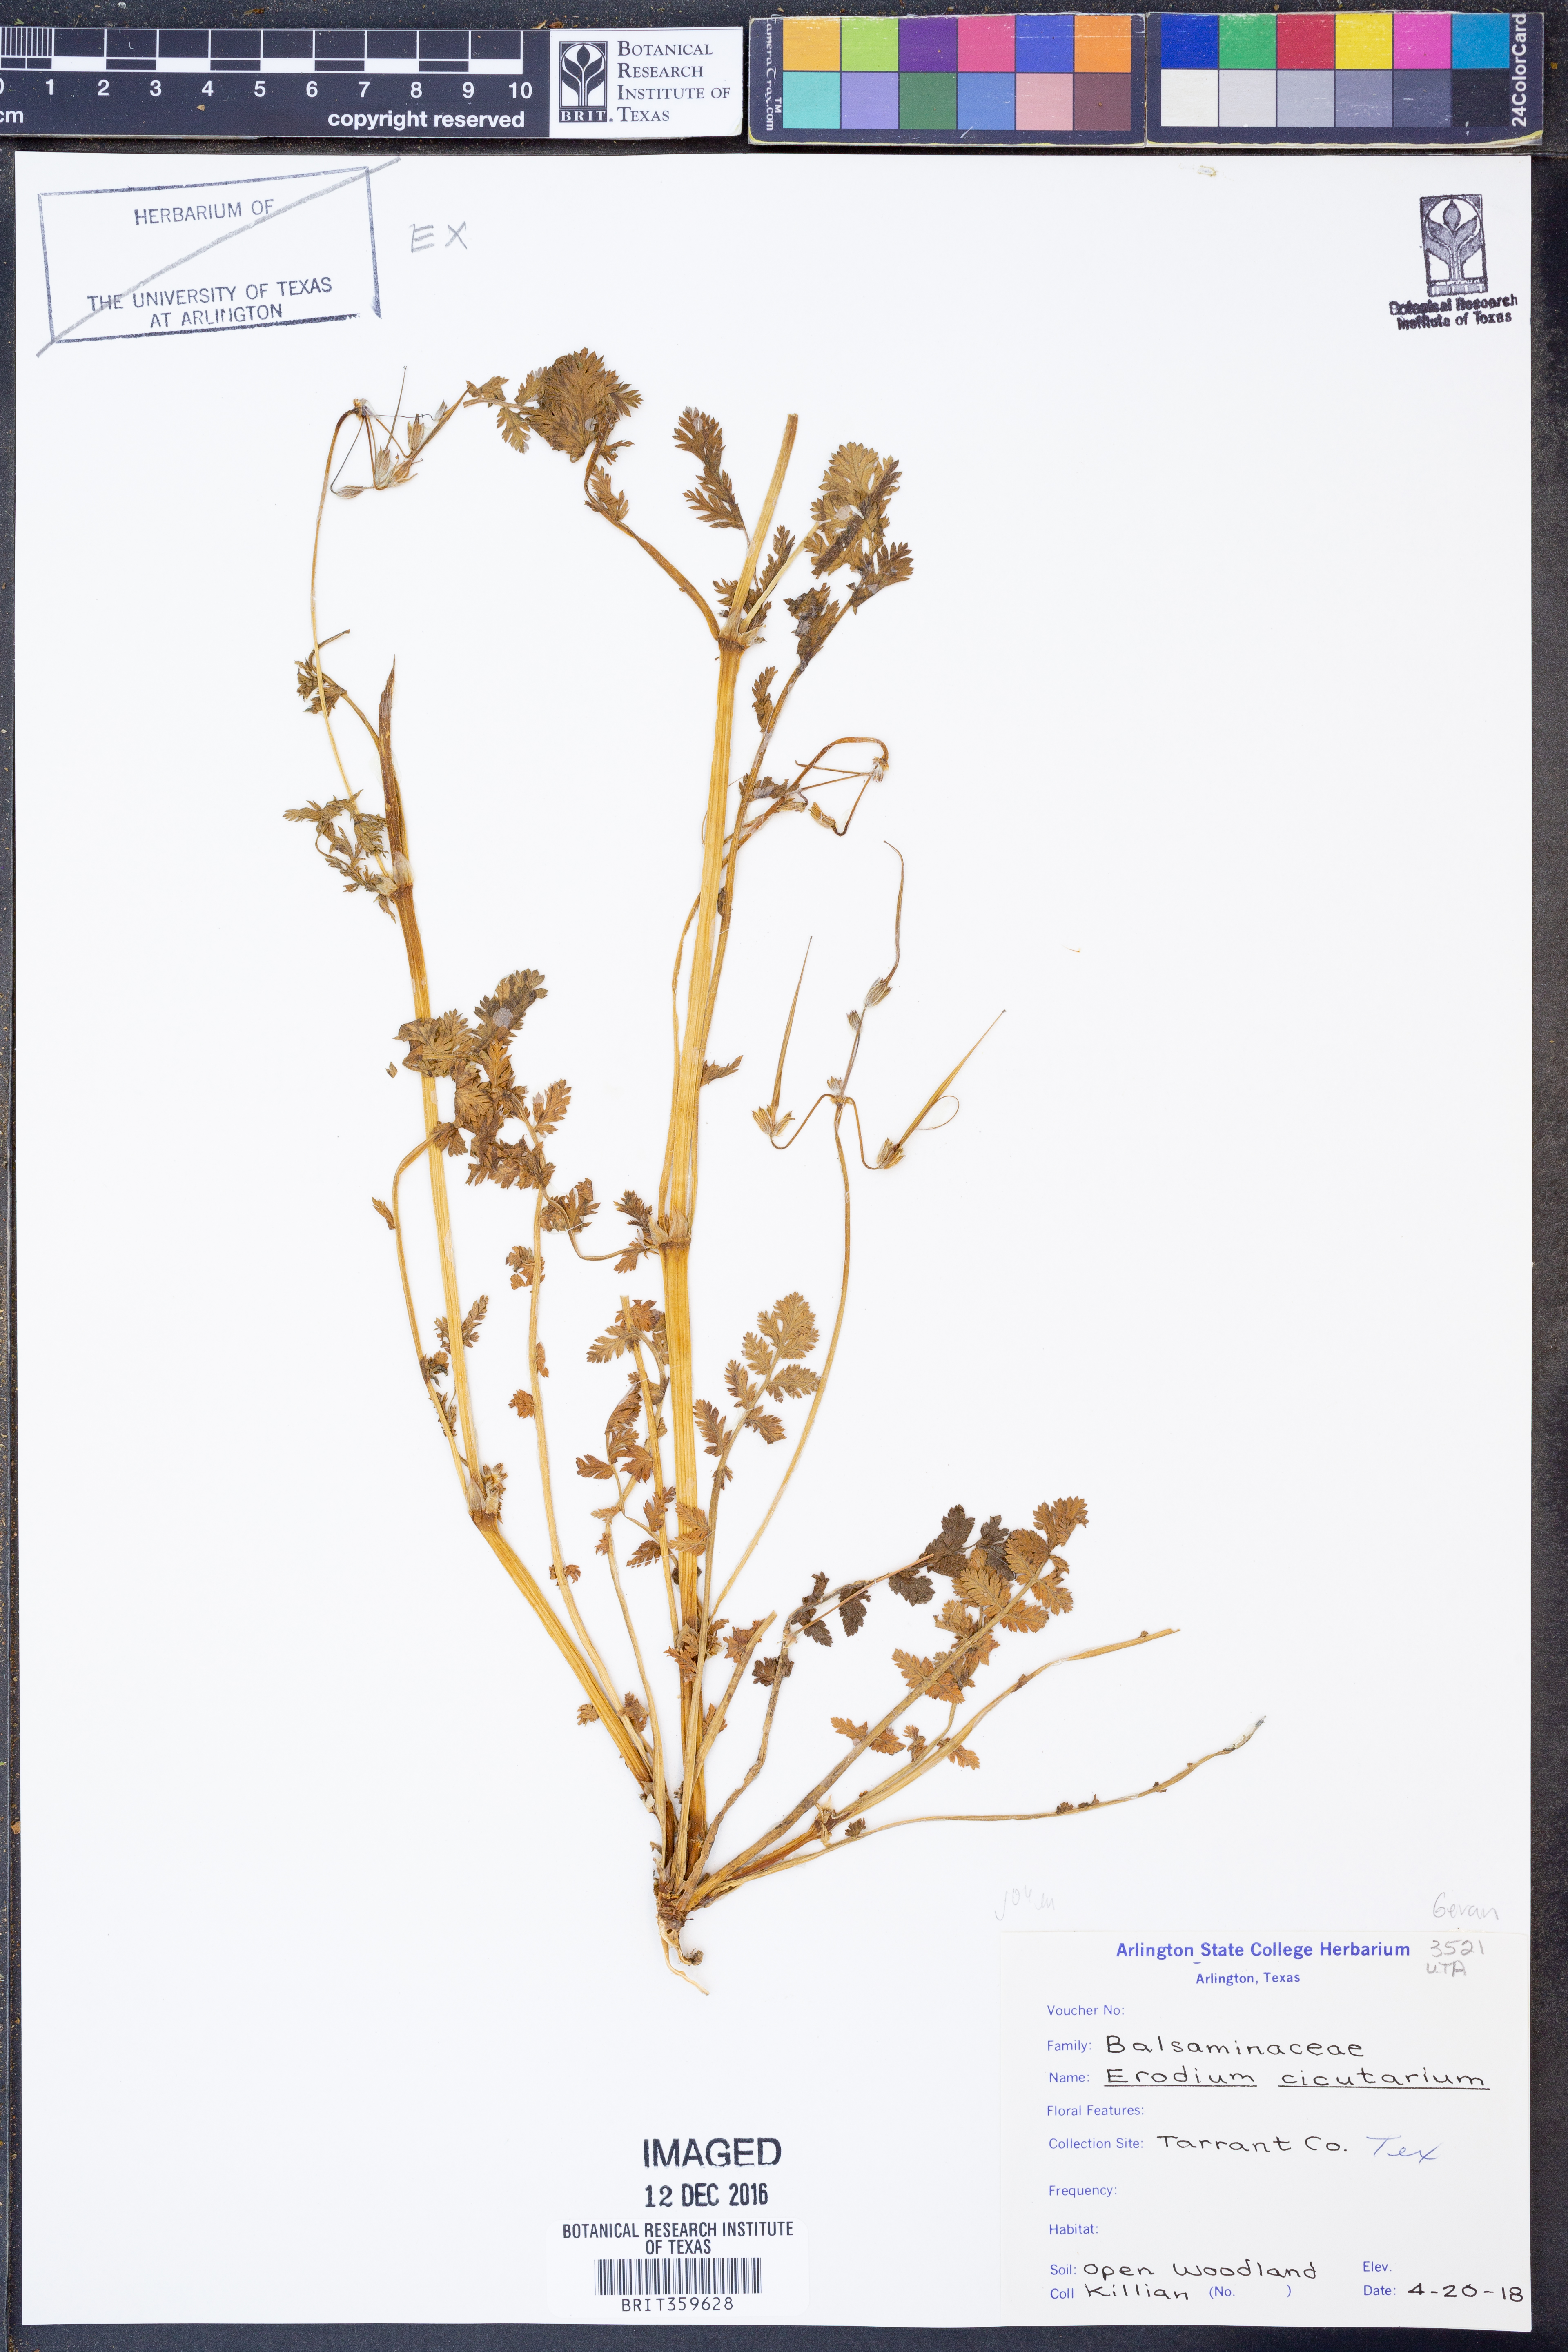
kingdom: Plantae
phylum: Tracheophyta
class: Magnoliopsida
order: Geraniales
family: Geraniaceae
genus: Erodium
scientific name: Erodium cicutarium
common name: Common stork's-bill
